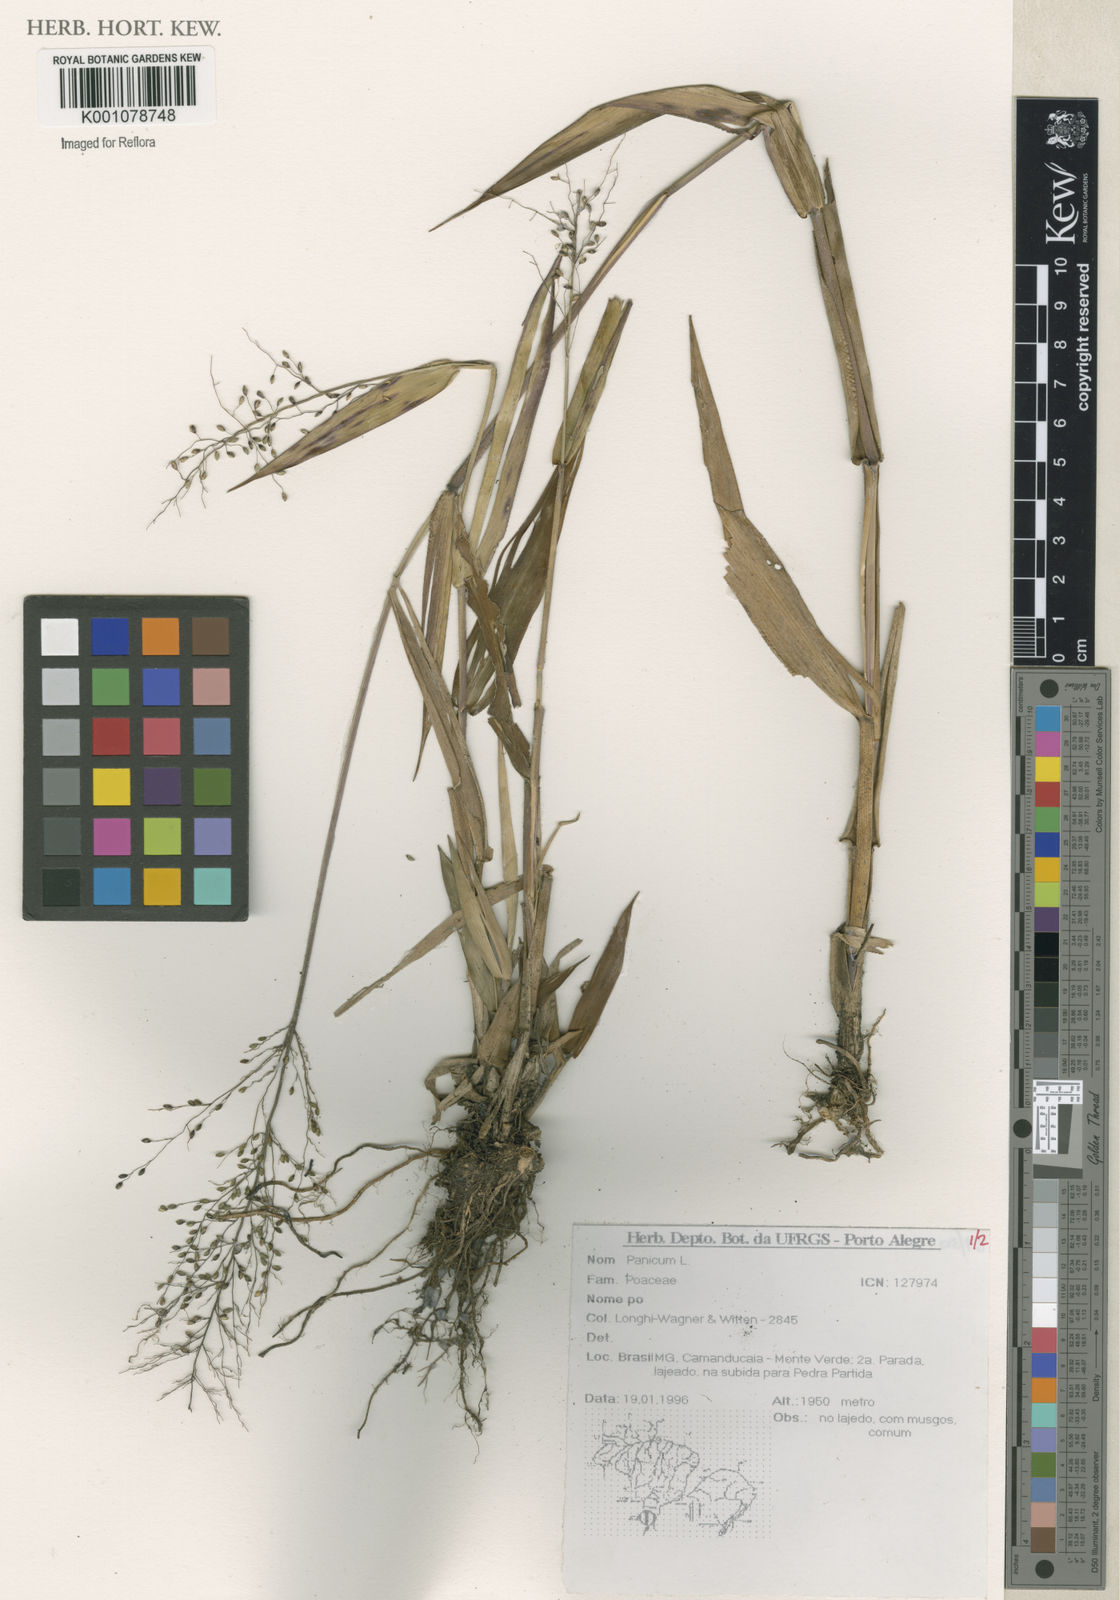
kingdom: Plantae
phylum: Tracheophyta
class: Liliopsida
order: Poales
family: Poaceae
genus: Panicum
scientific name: Panicum
